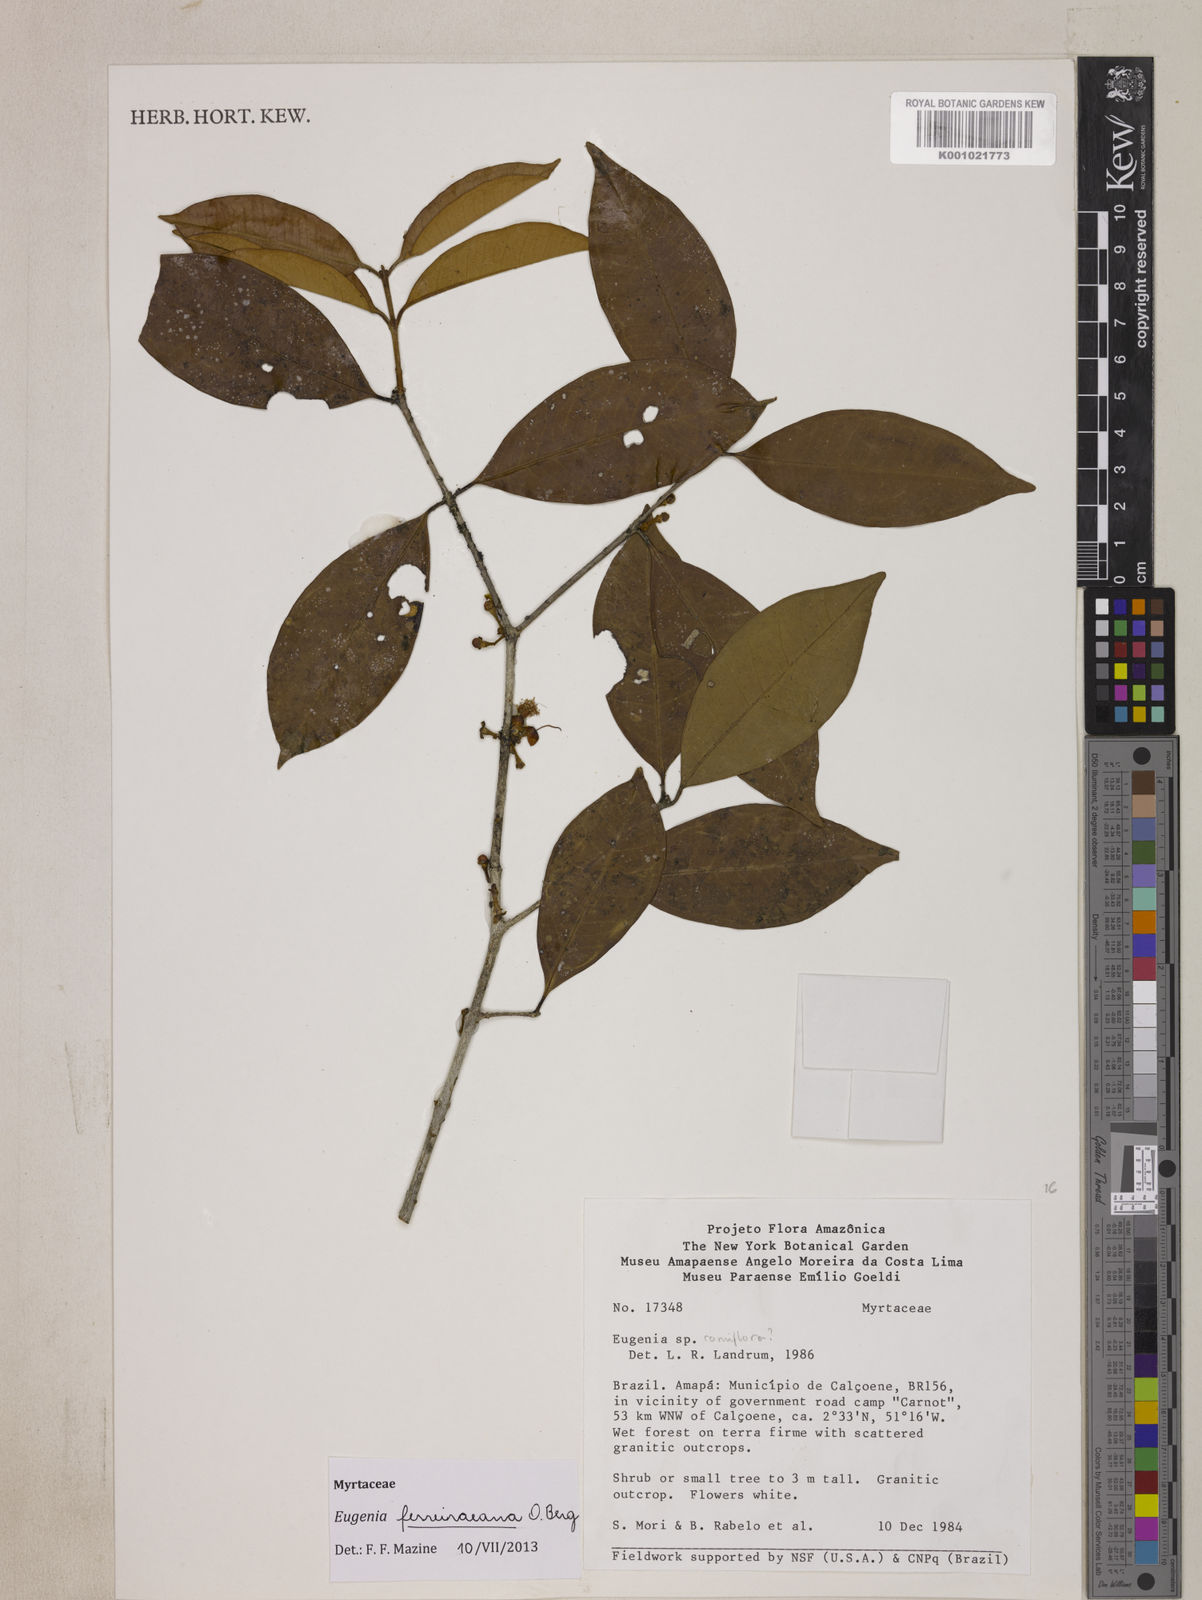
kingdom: Plantae
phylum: Tracheophyta
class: Magnoliopsida
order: Myrtales
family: Myrtaceae
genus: Eugenia
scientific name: Eugenia ferreiraeana
